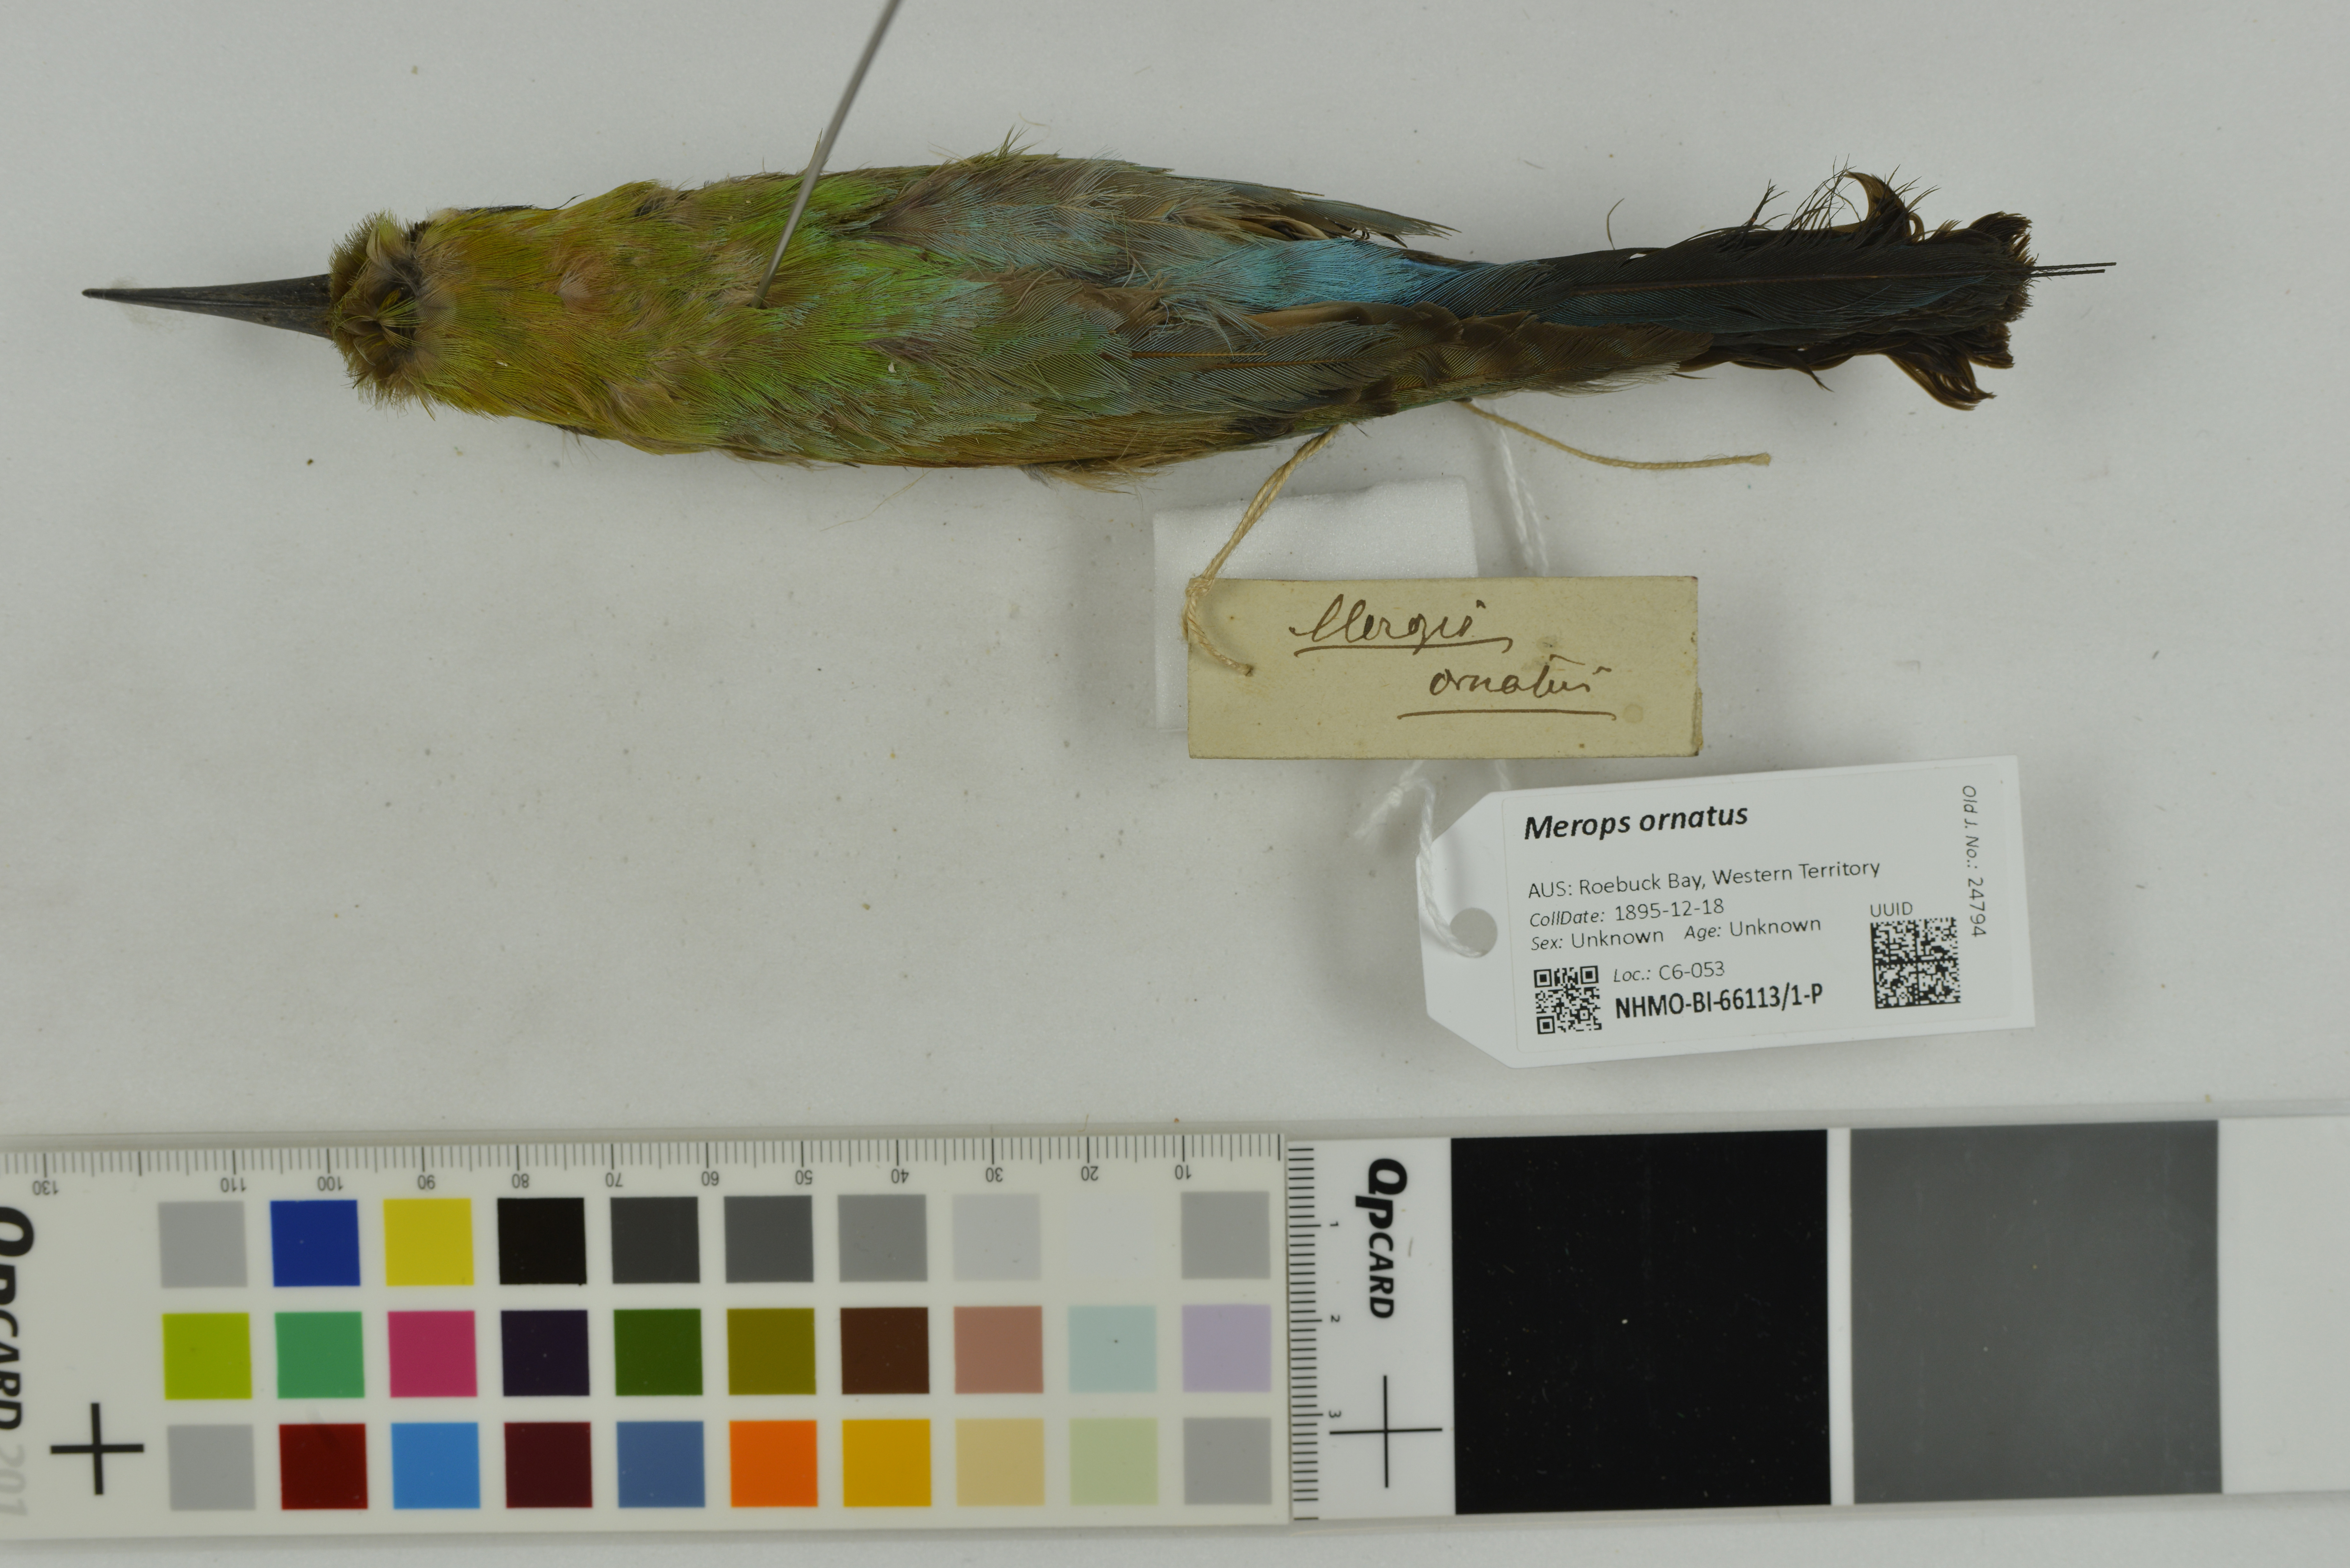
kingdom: Animalia
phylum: Chordata
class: Aves
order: Coraciiformes
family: Meropidae
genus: Merops
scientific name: Merops ornatus
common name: Rainbow bee-eater
